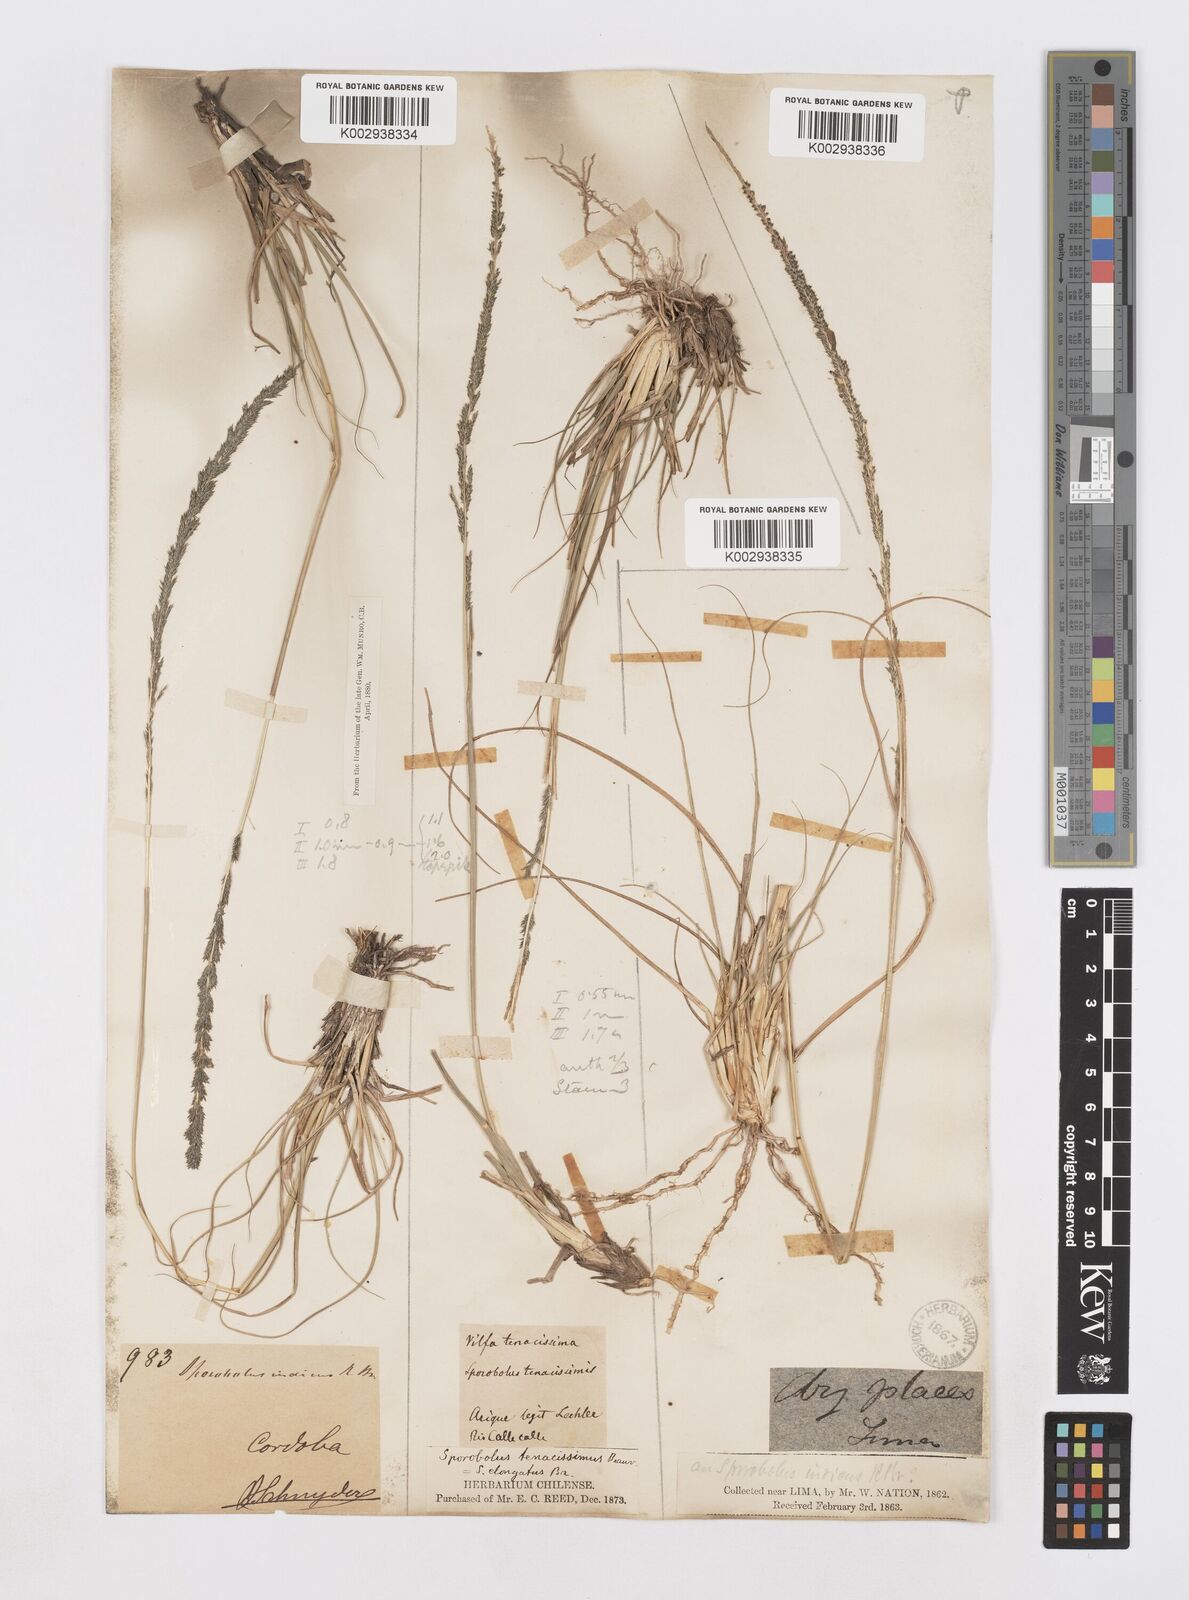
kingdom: Plantae
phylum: Tracheophyta
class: Liliopsida
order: Poales
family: Poaceae
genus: Sporobolus
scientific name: Sporobolus minor
